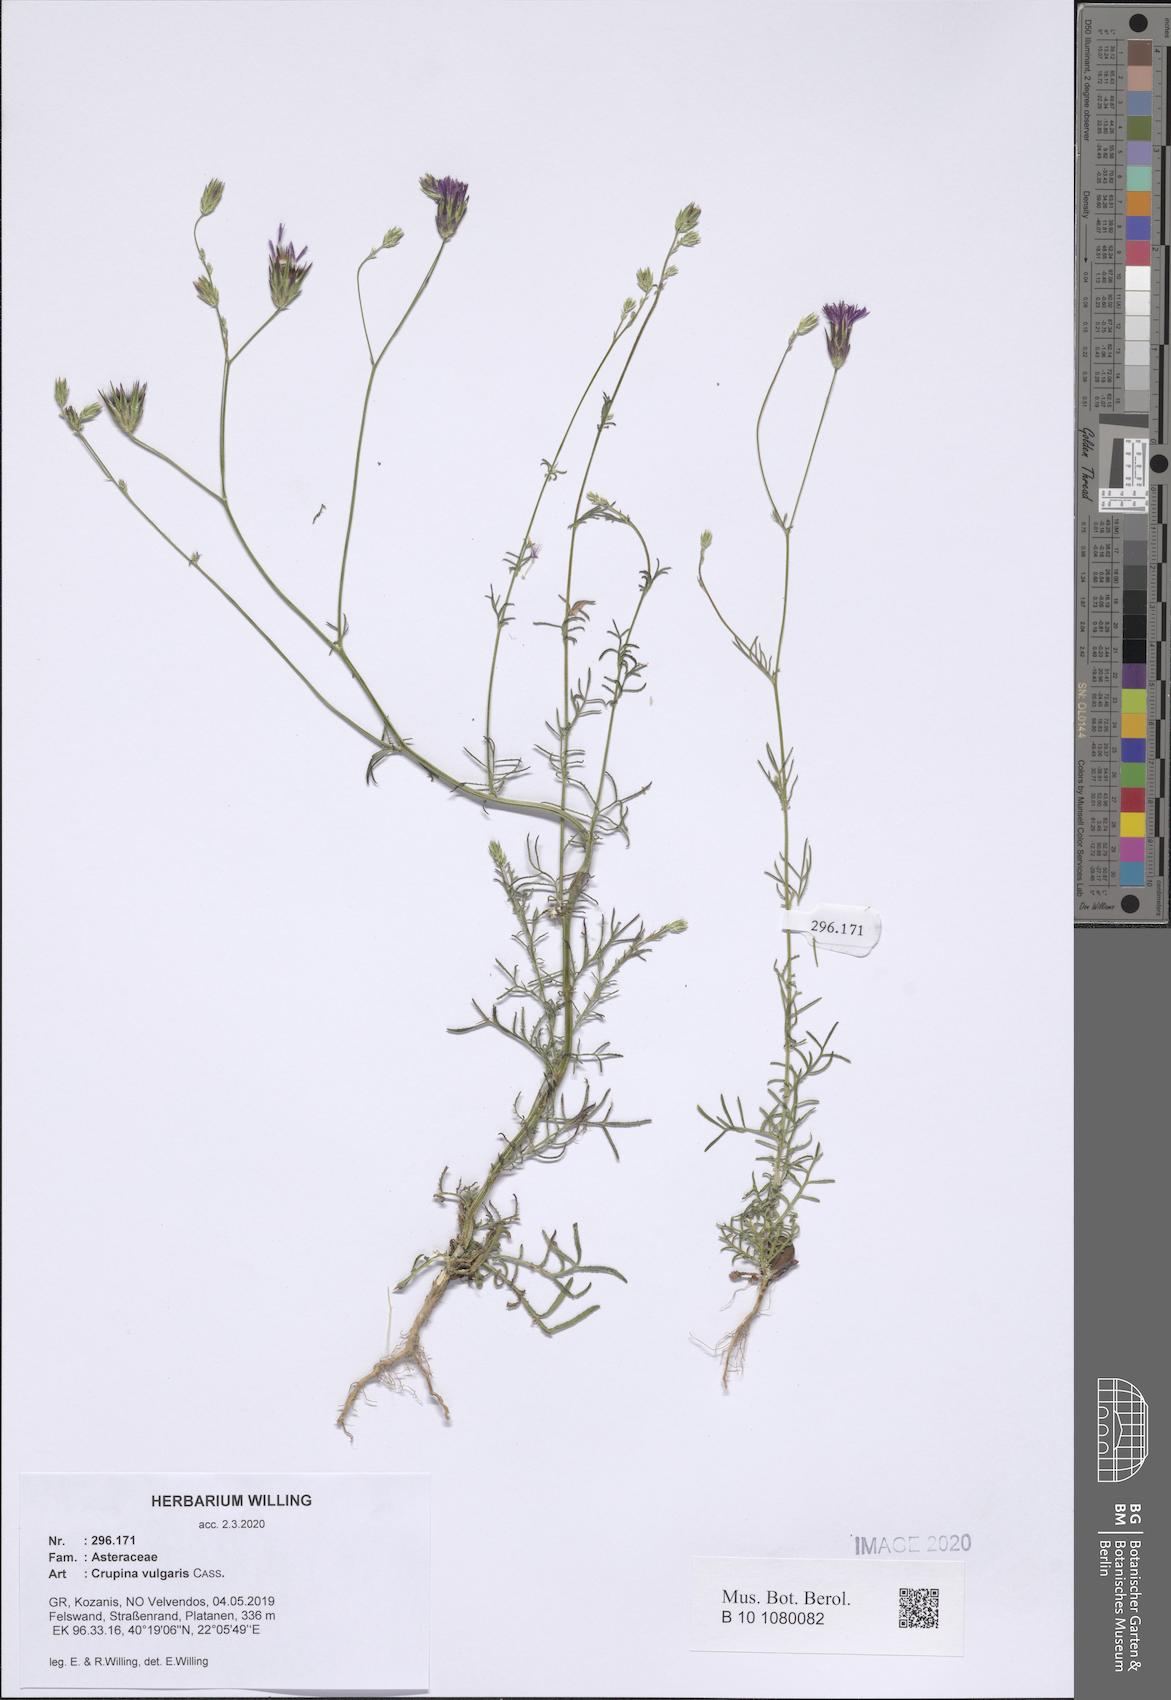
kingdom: Plantae
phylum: Tracheophyta
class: Magnoliopsida
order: Asterales
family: Asteraceae
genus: Crupina
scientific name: Crupina vulgaris
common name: Common crupina
